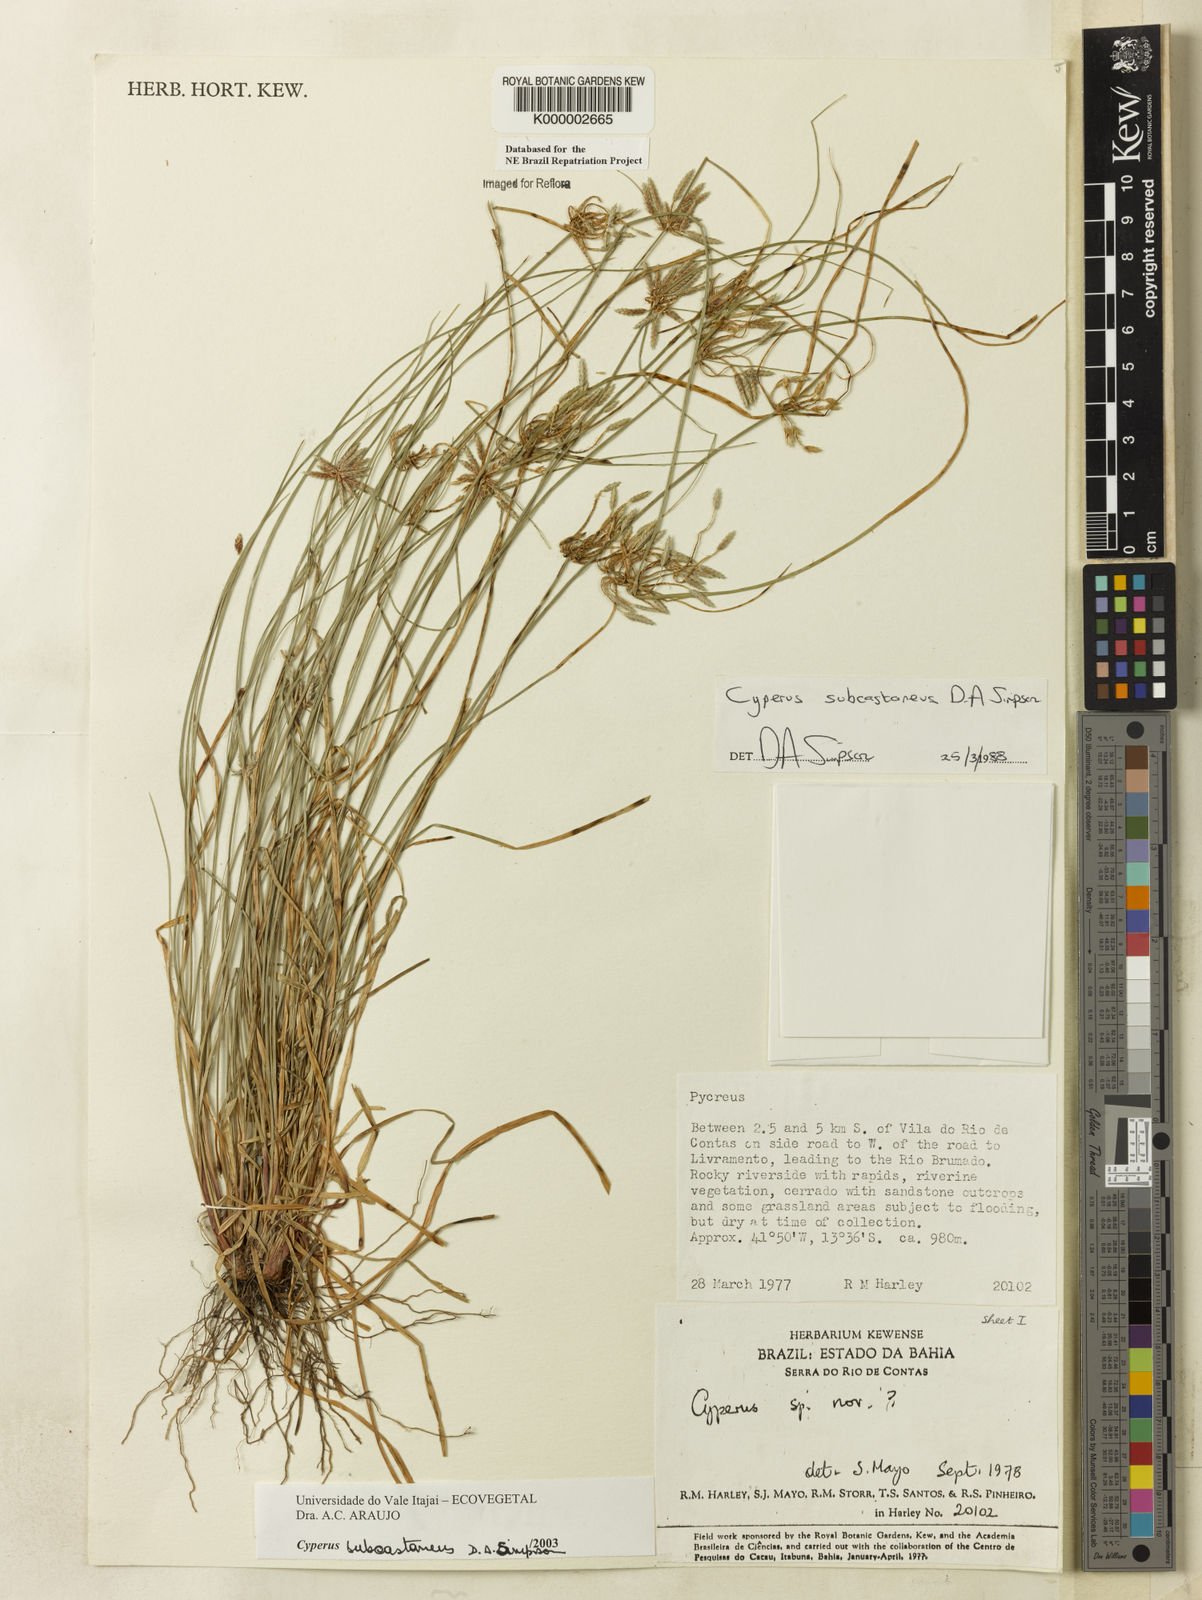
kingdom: Plantae
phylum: Tracheophyta
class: Liliopsida
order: Poales
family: Cyperaceae
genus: Cyperus
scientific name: Cyperus subcastaneus
